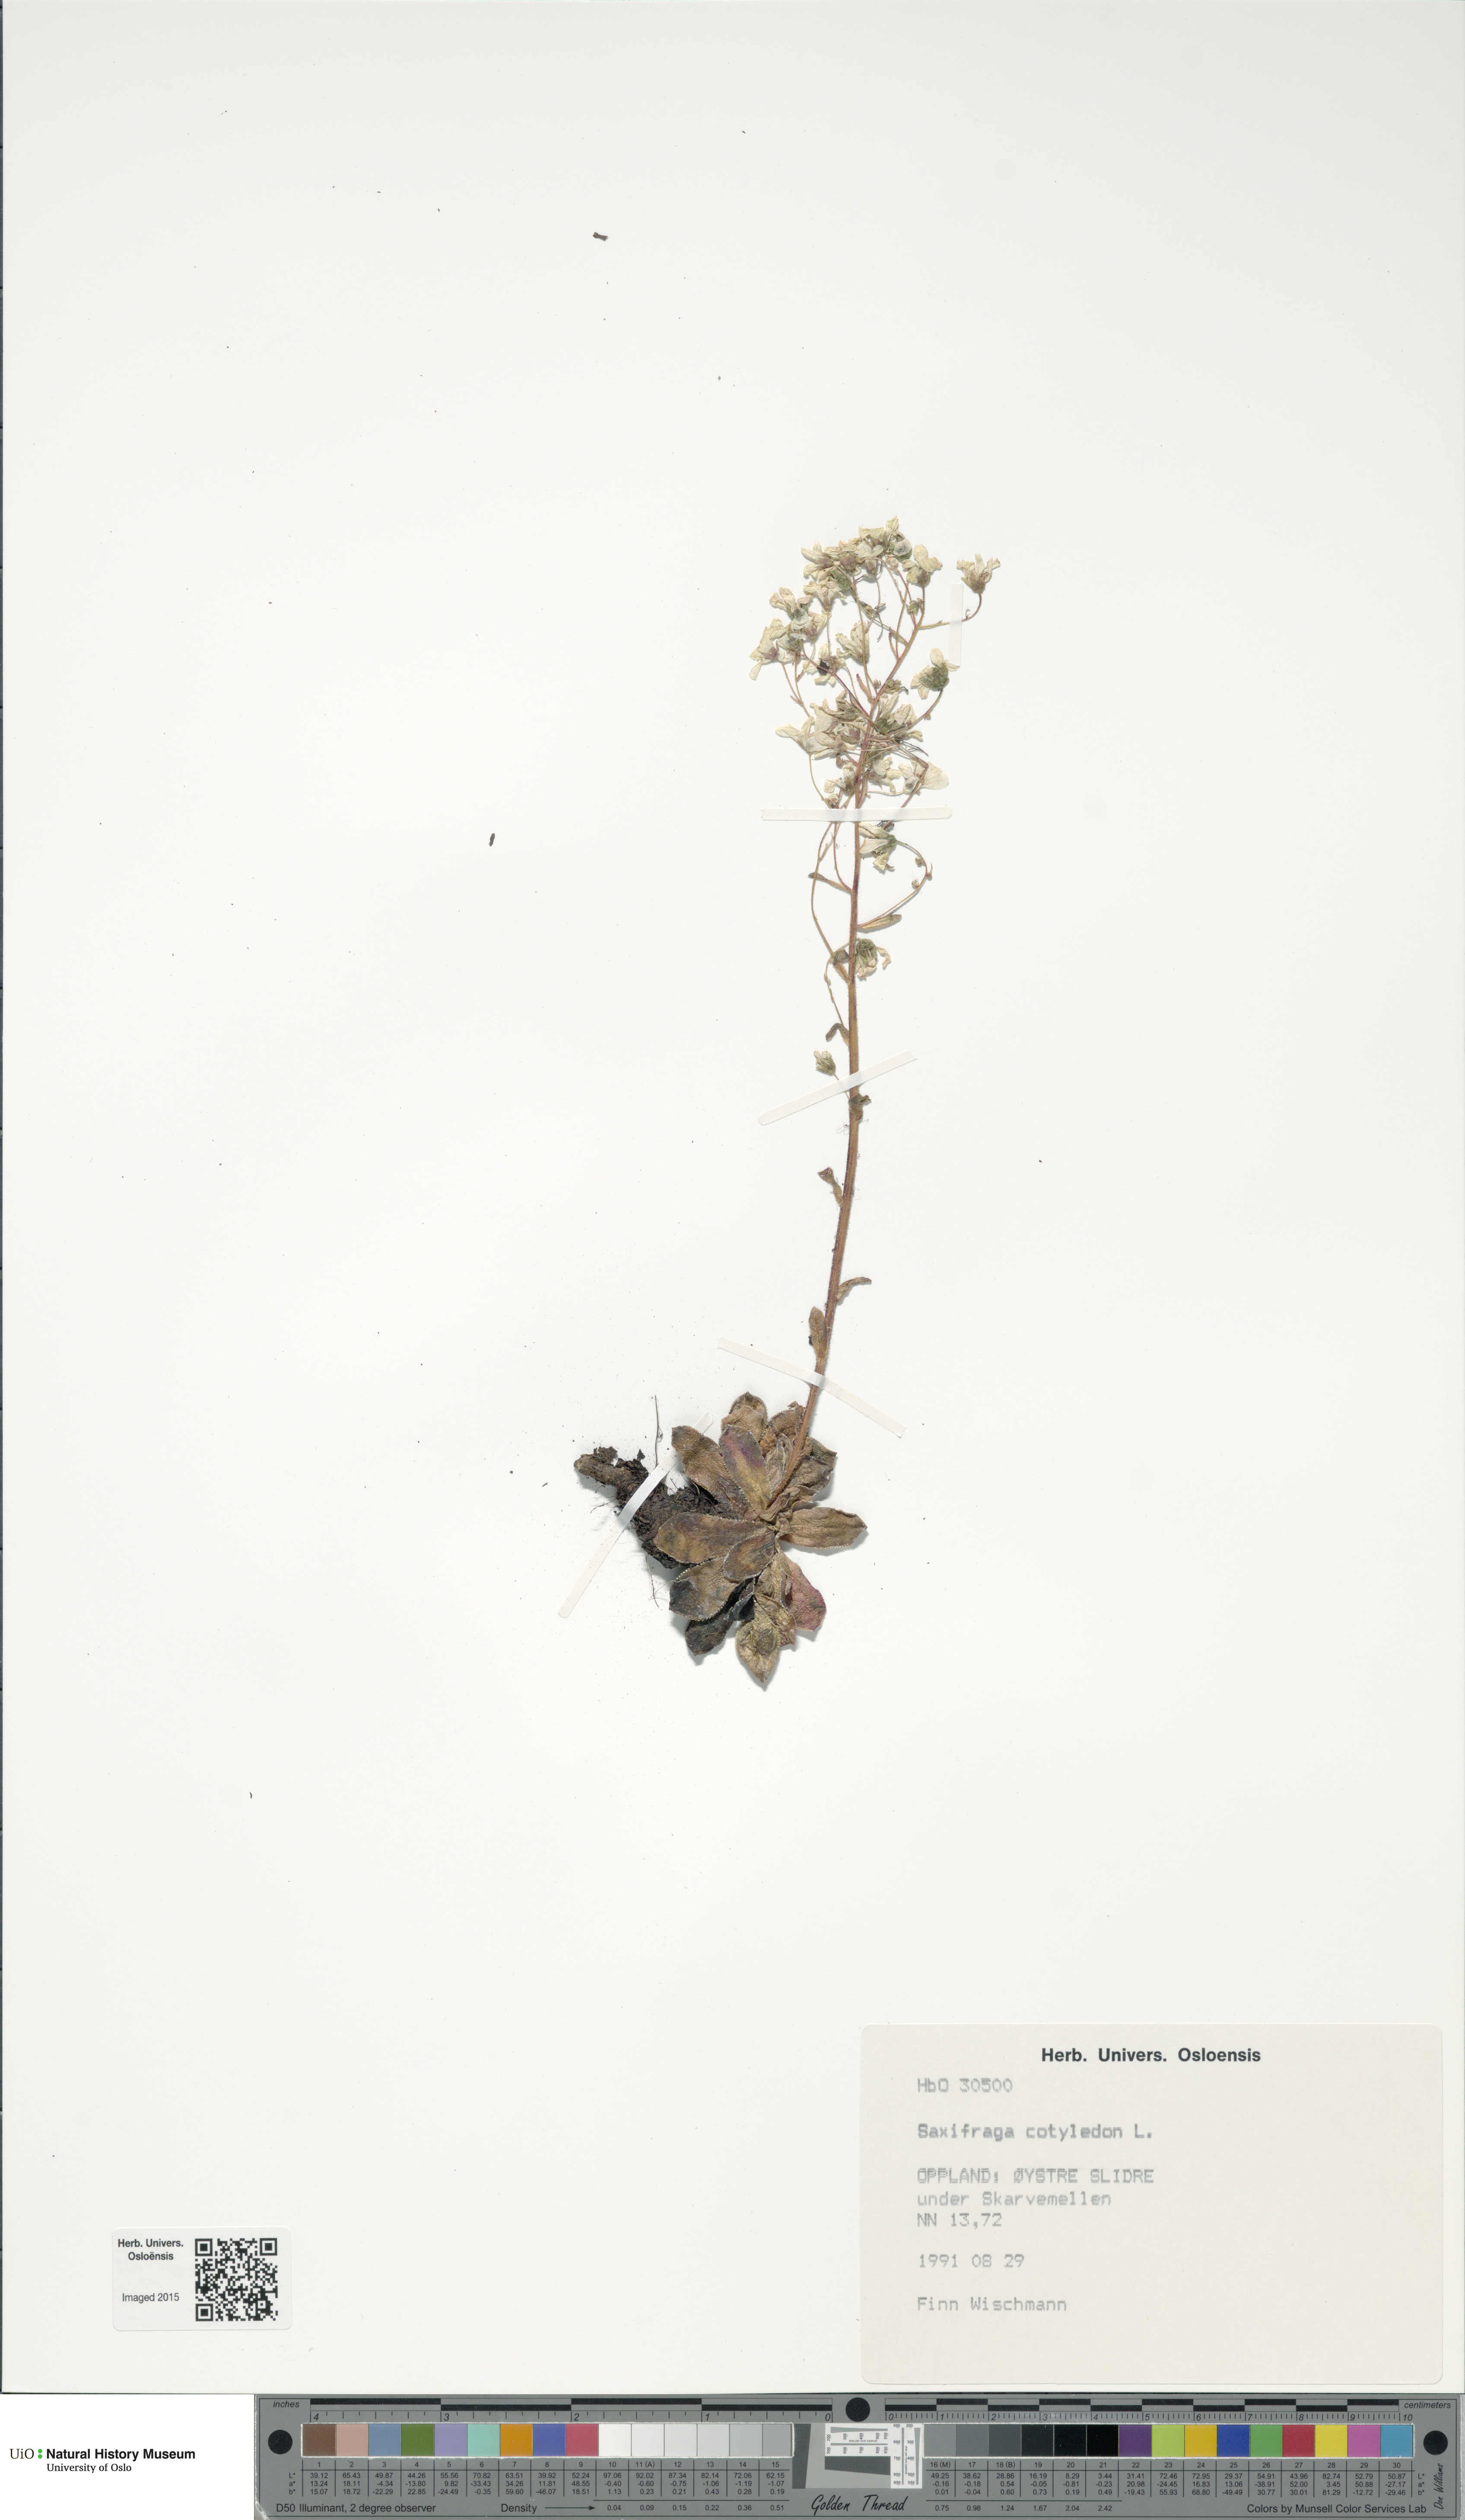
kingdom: Plantae
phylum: Tracheophyta
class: Magnoliopsida
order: Saxifragales
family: Saxifragaceae
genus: Saxifraga
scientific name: Saxifraga cotyledon
